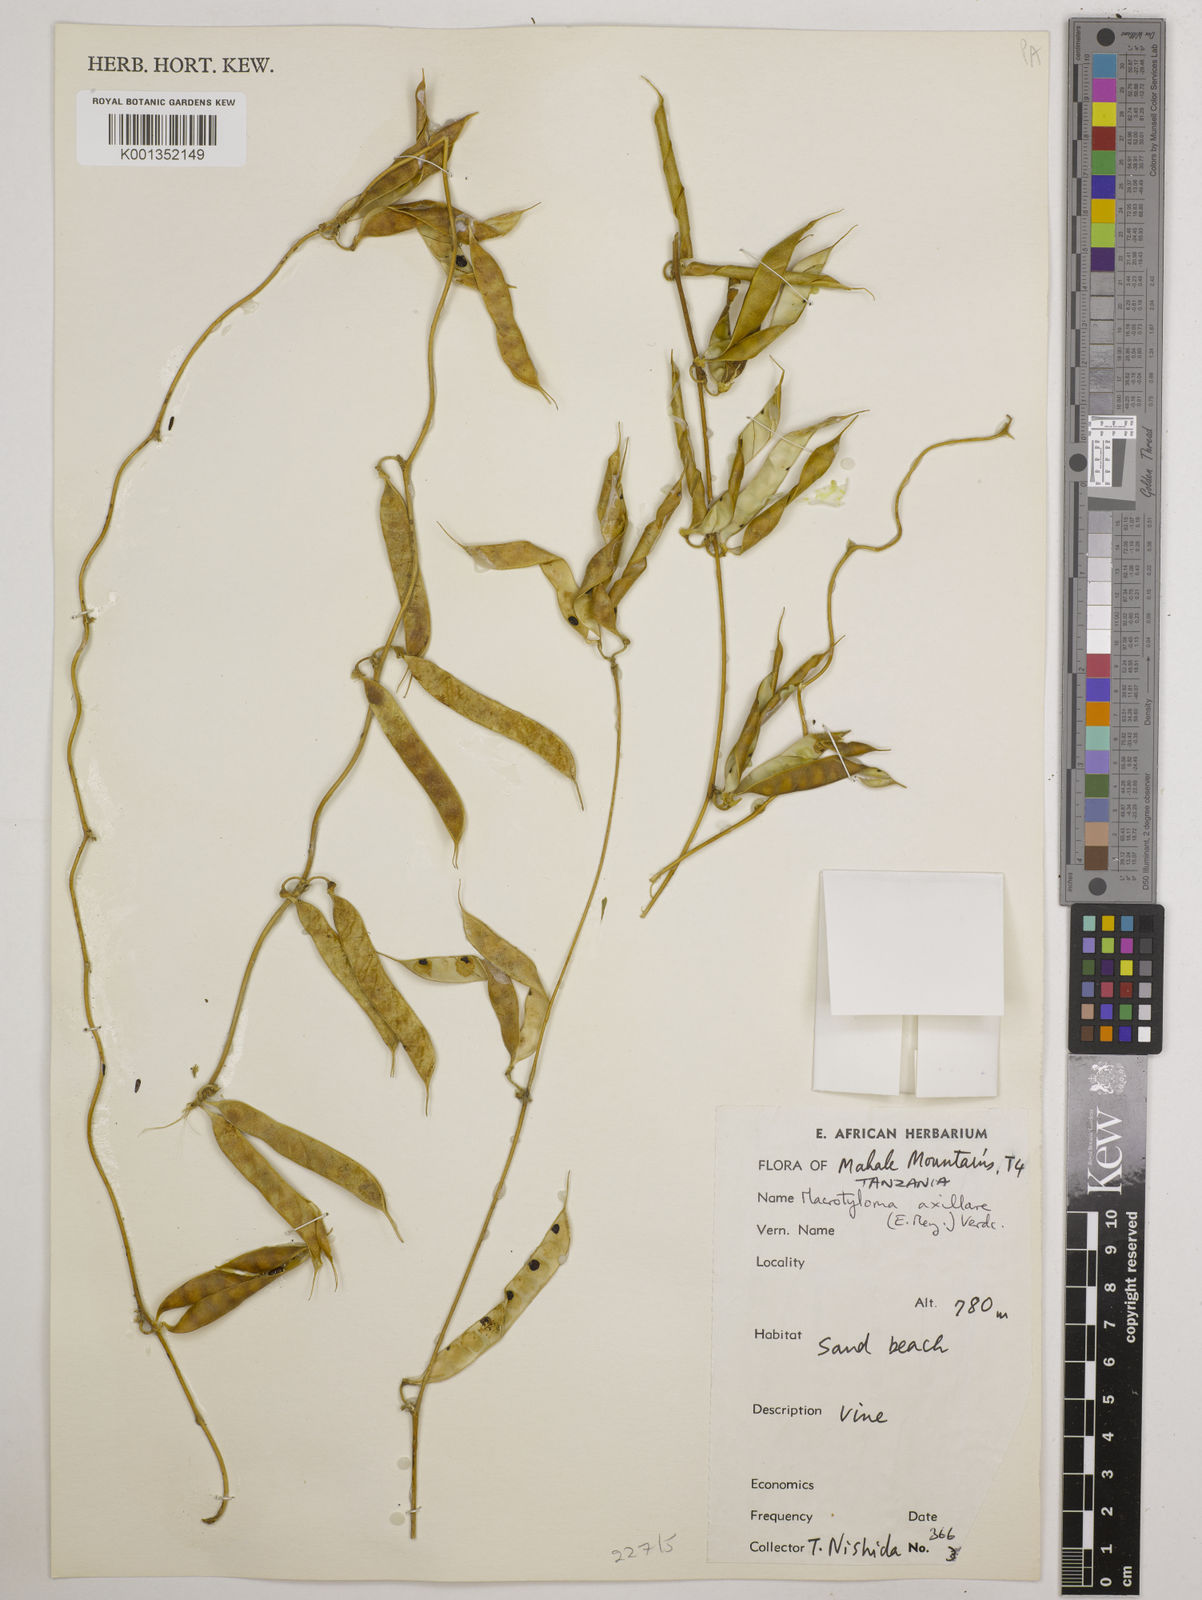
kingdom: Plantae
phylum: Tracheophyta
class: Magnoliopsida
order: Fabales
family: Fabaceae
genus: Macrotyloma
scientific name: Macrotyloma axillare
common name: Perennial horsegram
